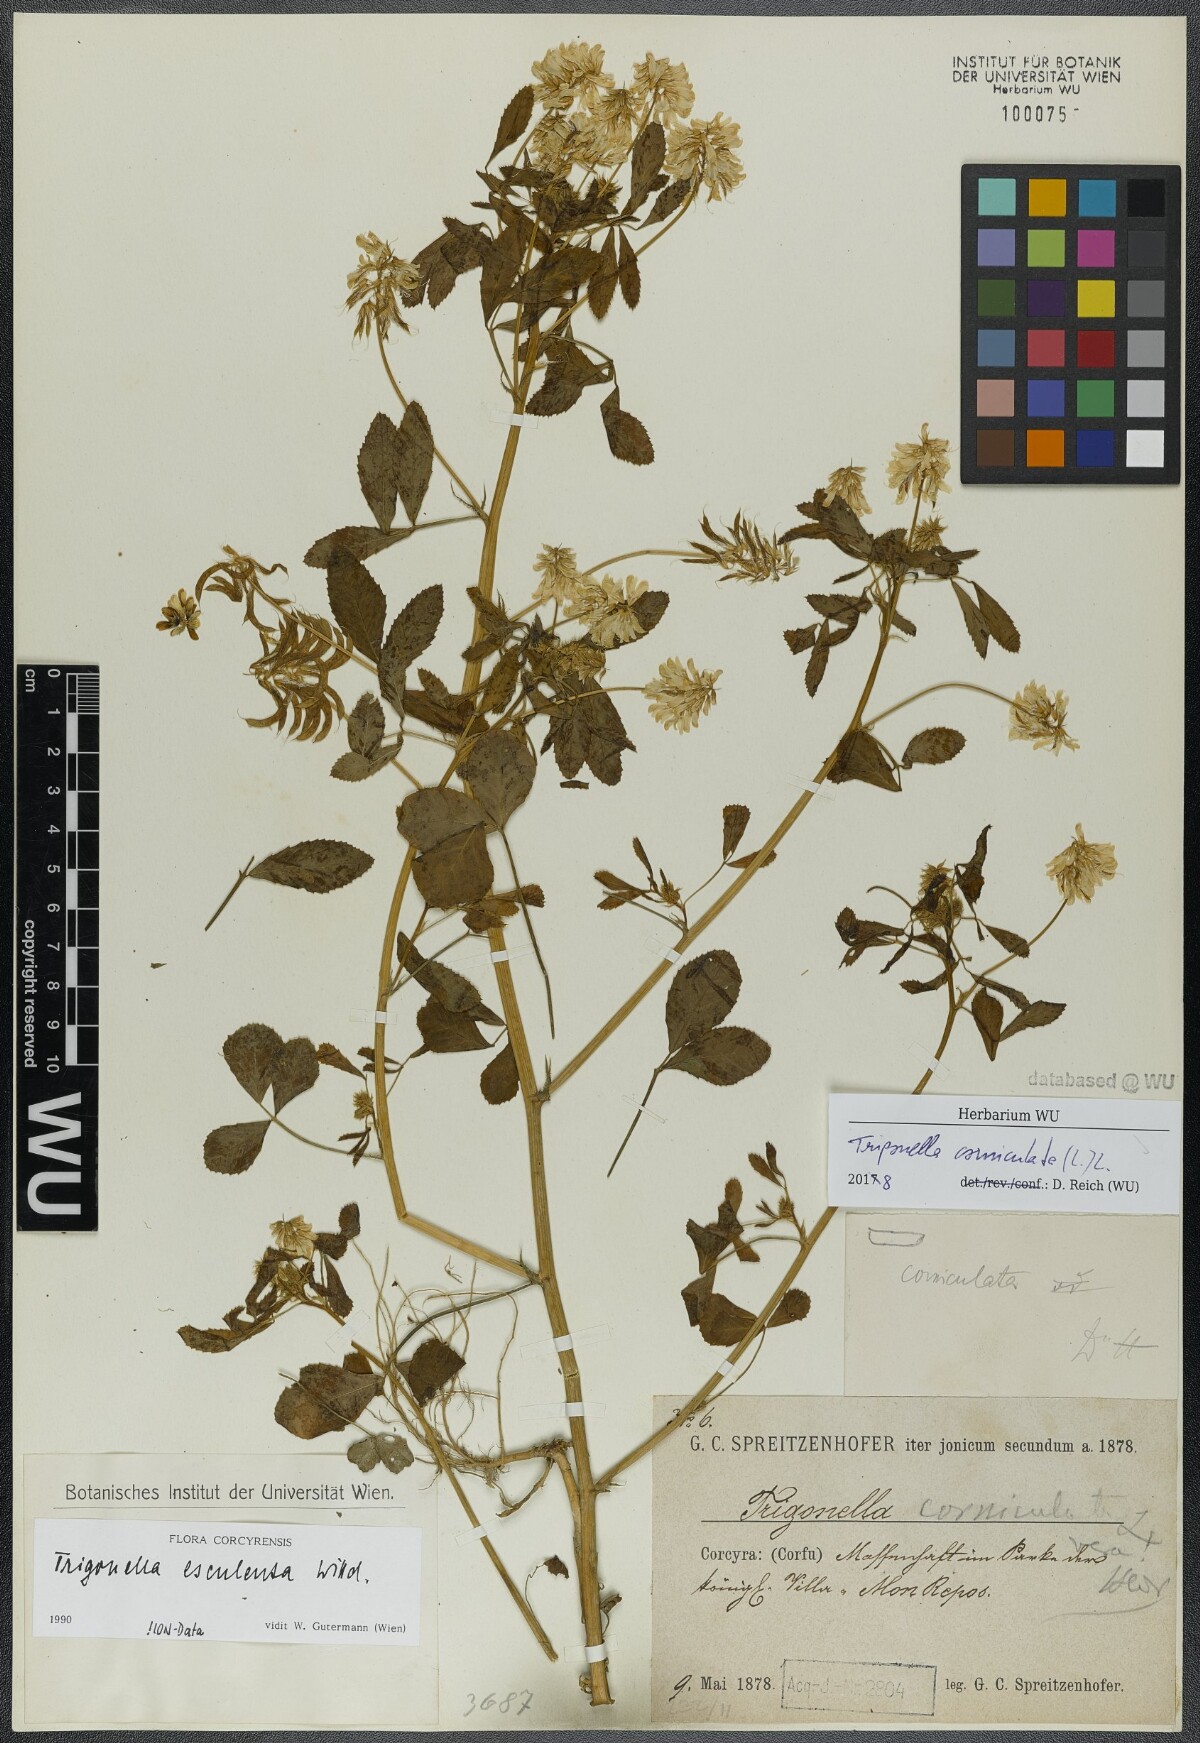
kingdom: Plantae
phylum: Tracheophyta
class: Magnoliopsida
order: Fabales
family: Fabaceae
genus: Trigonella
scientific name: Trigonella balansae
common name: Sickle-fruited fenugreek
